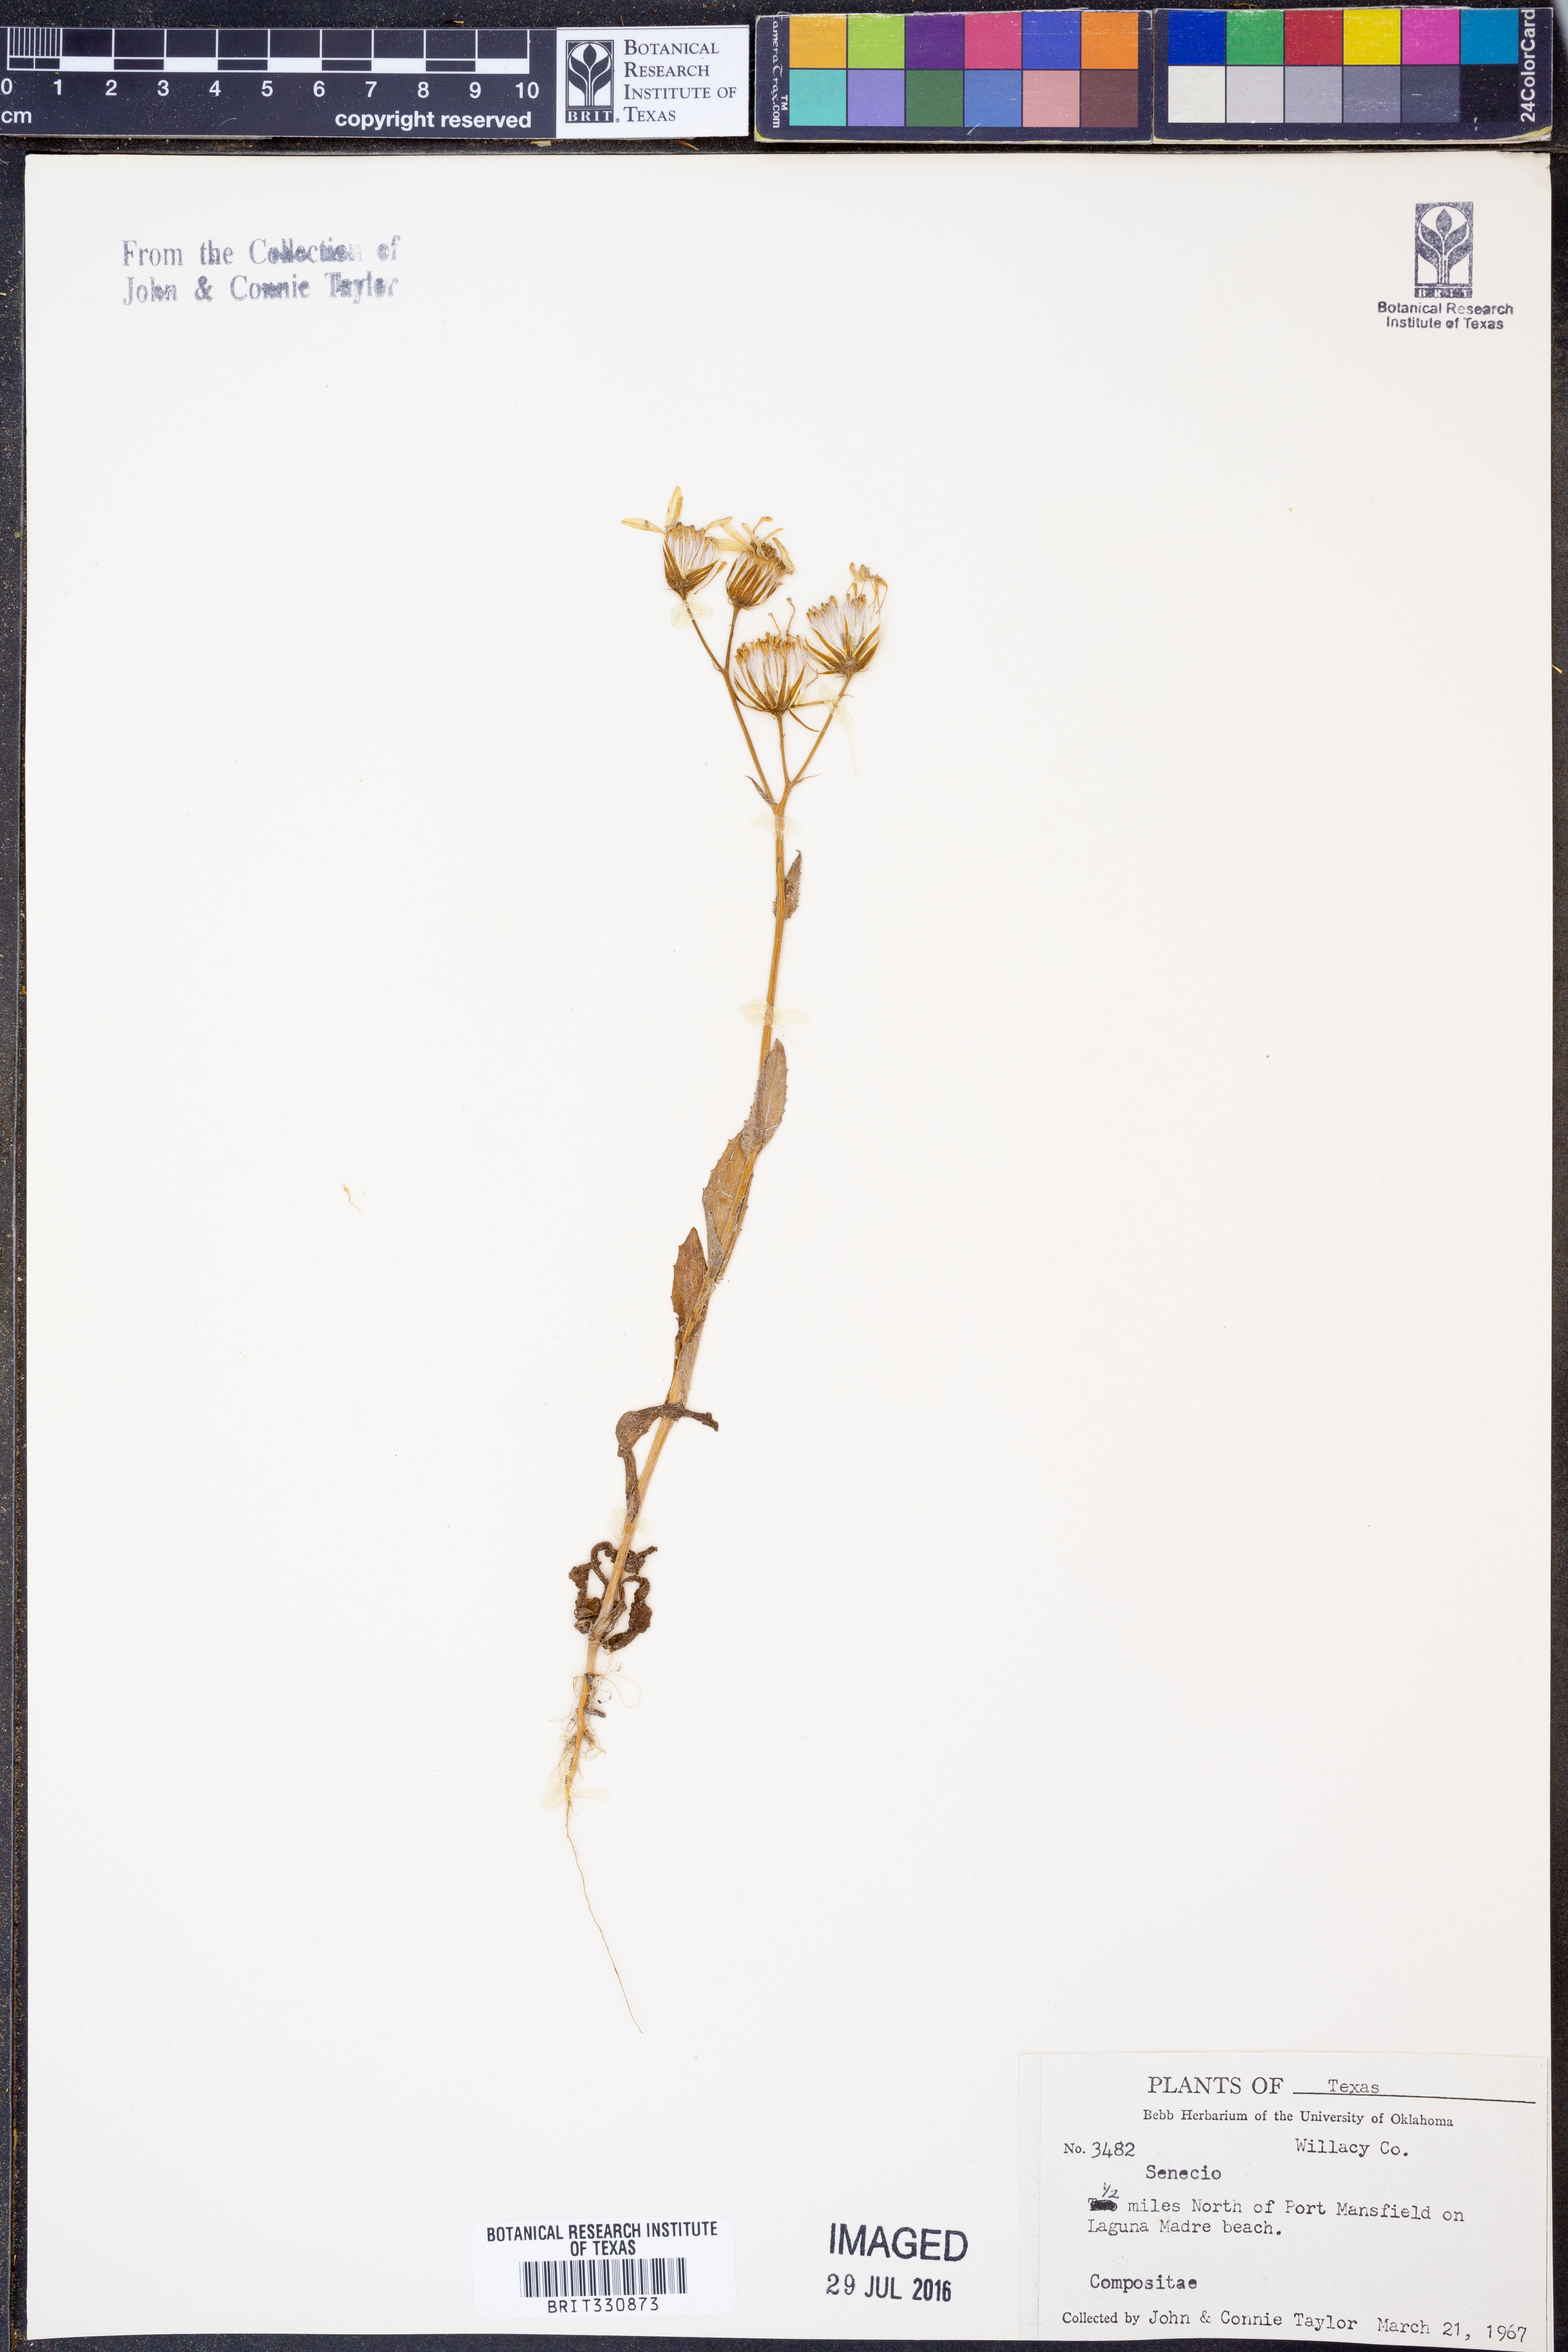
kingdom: Plantae
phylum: Tracheophyta
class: Magnoliopsida
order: Asterales
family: Asteraceae
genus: Senecio
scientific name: Senecio
